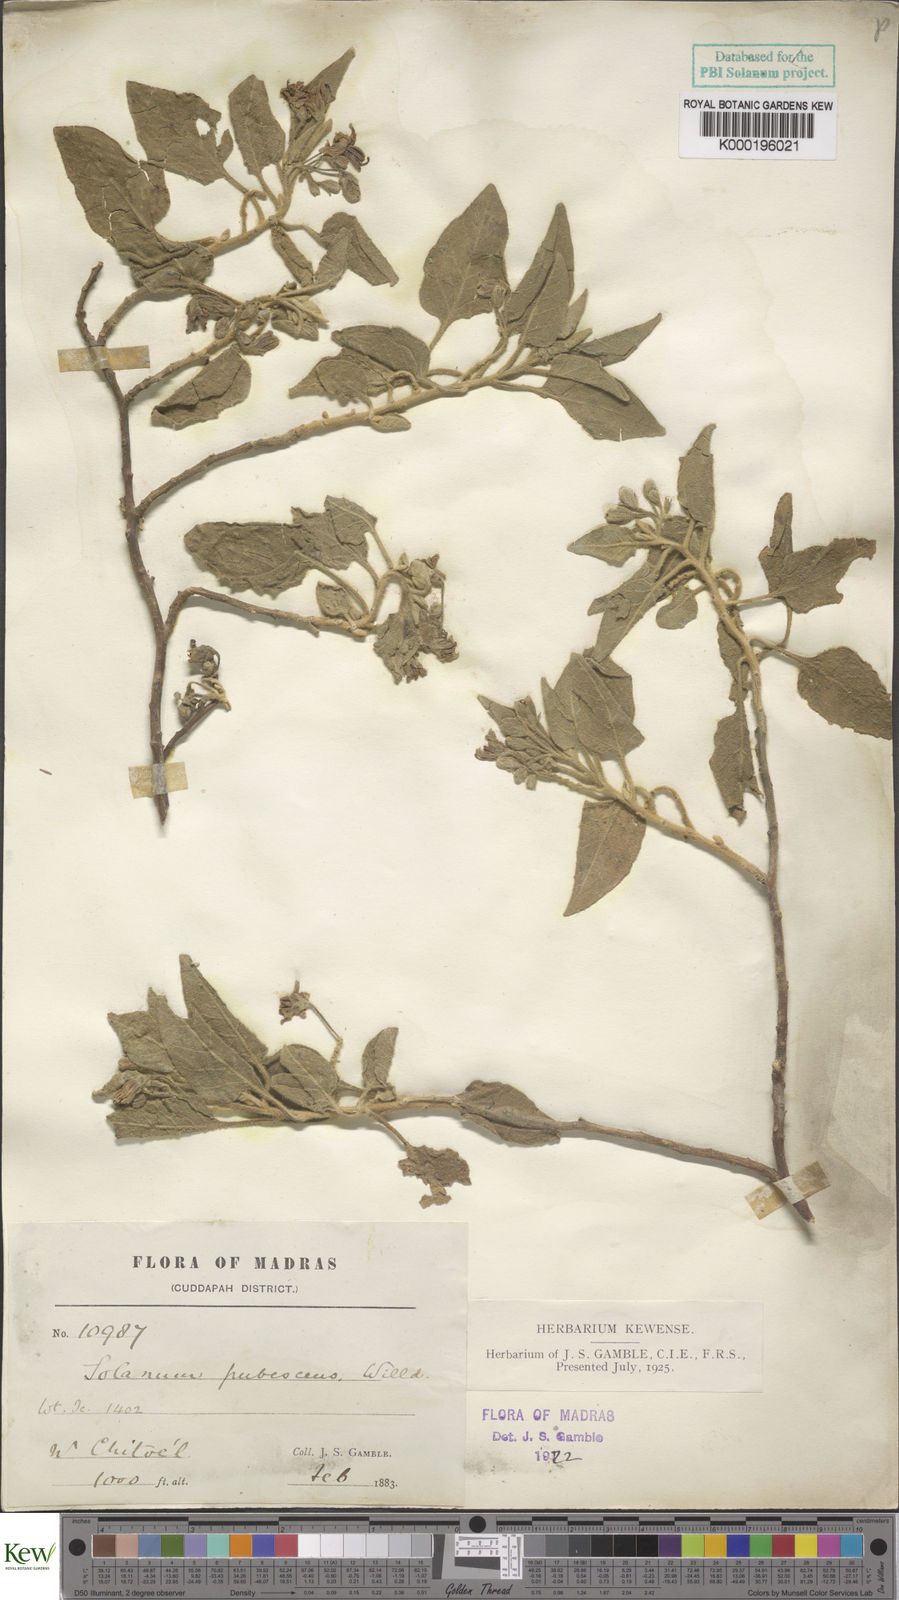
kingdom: Plantae
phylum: Tracheophyta
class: Magnoliopsida
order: Solanales
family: Solanaceae
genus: Solanum
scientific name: Solanum pubescens
